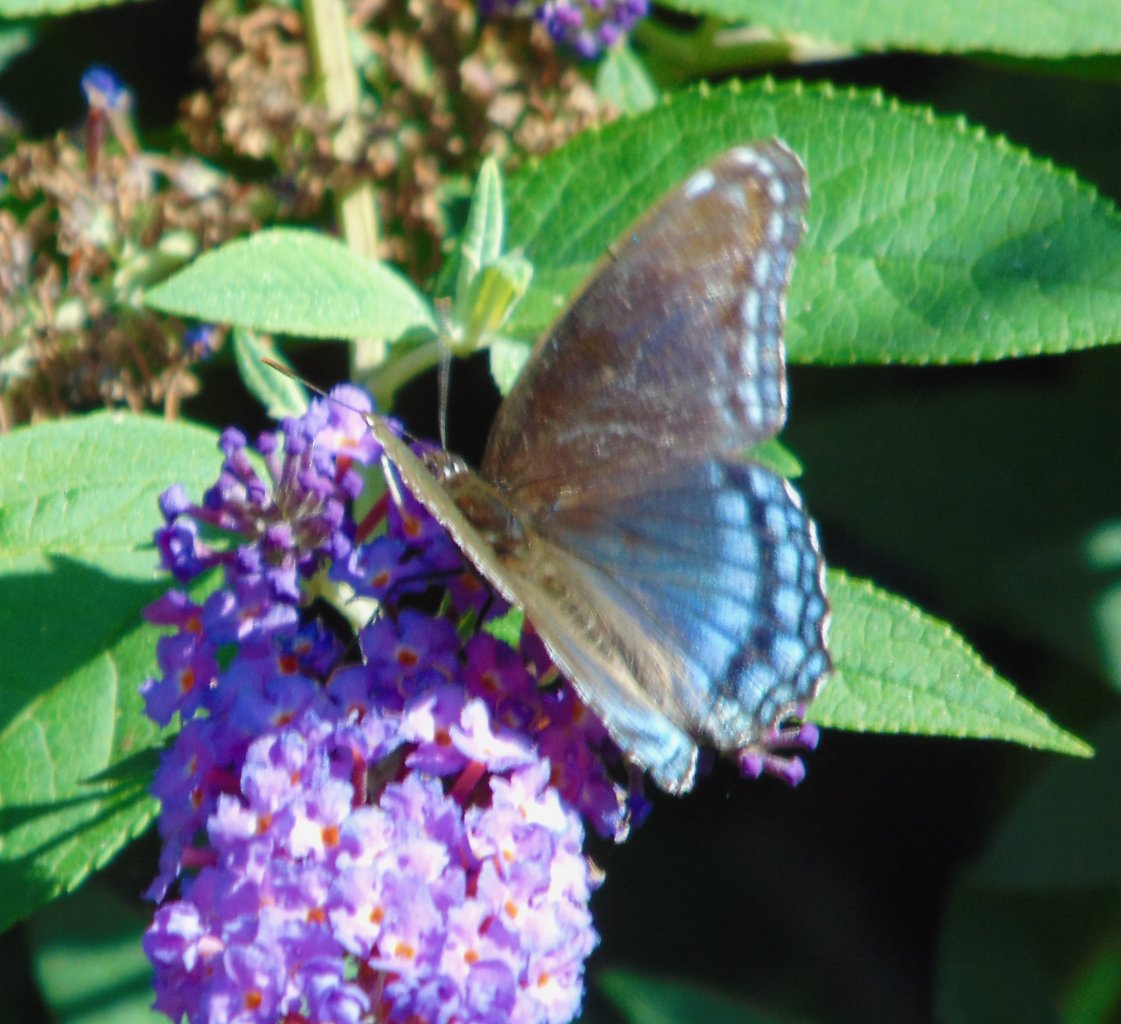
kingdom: Animalia
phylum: Arthropoda
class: Insecta
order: Lepidoptera
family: Nymphalidae
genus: Limenitis
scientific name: Limenitis astyanax
